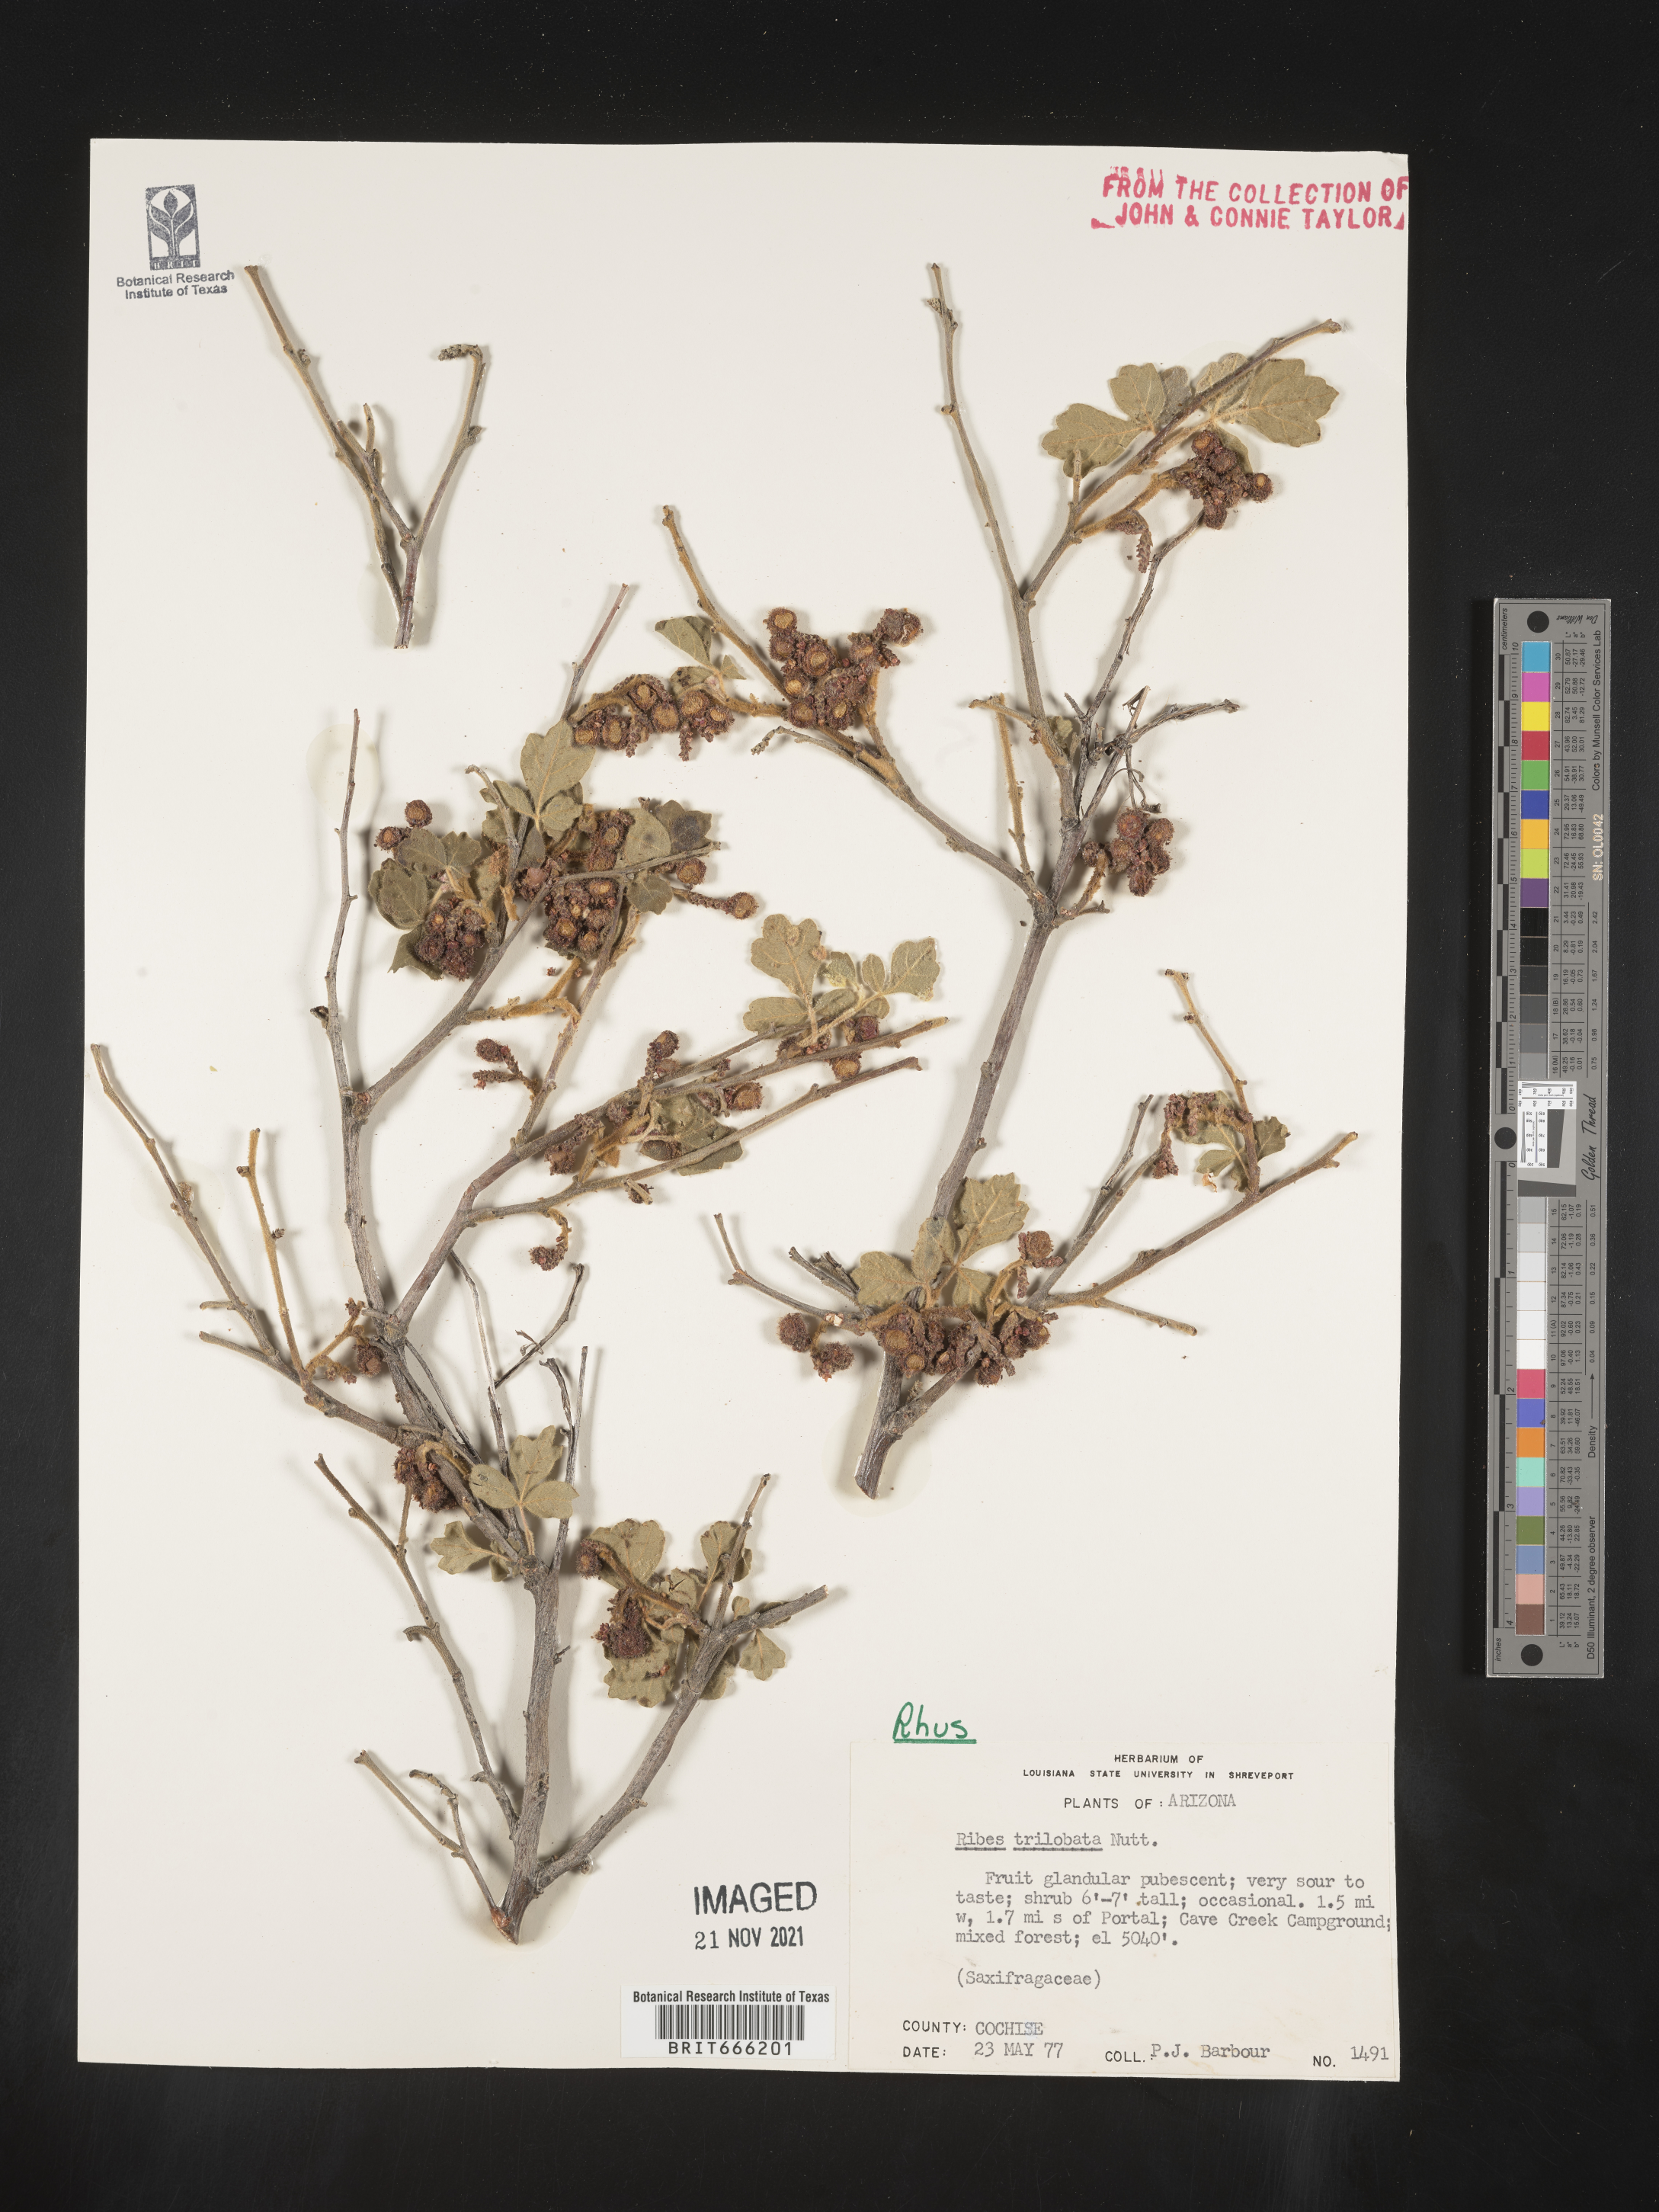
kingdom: Plantae
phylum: Tracheophyta
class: Magnoliopsida
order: Sapindales
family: Anacardiaceae
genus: Rhus
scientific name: Rhus trilobata
